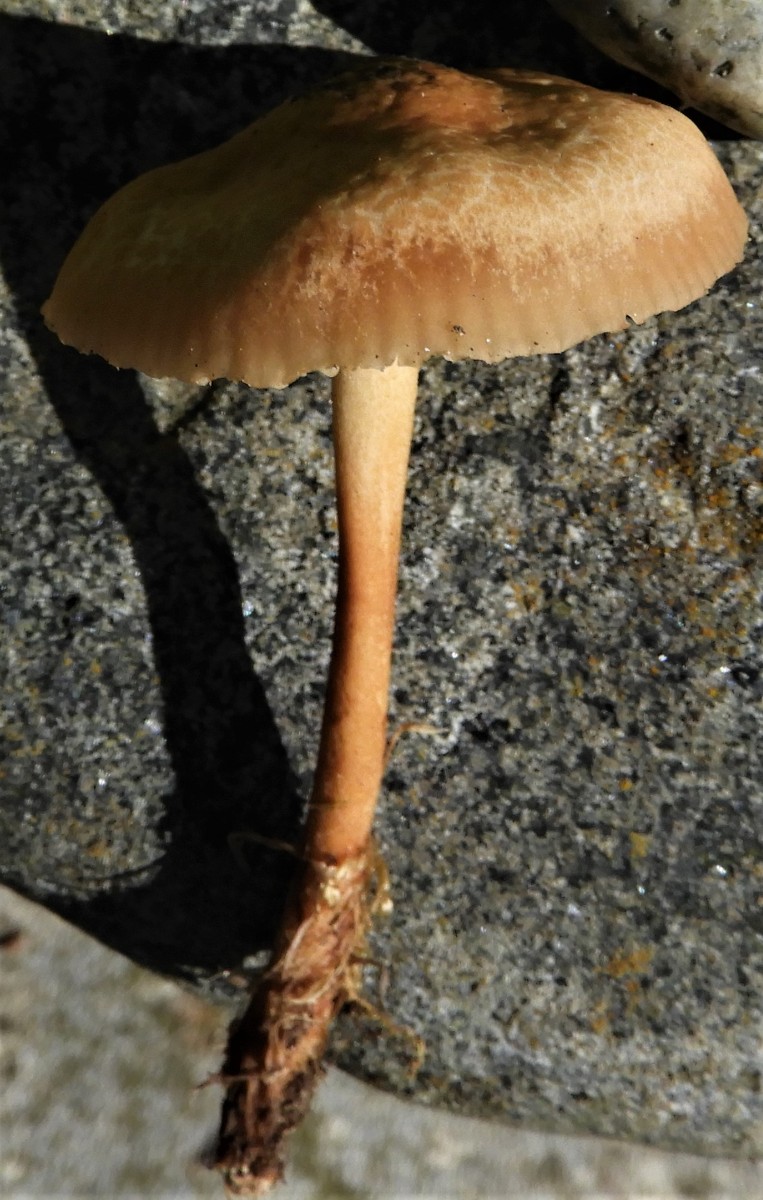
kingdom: Fungi
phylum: Basidiomycota
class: Agaricomycetes
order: Agaricales
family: Marasmiaceae
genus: Marasmius
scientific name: Marasmius oreades
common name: elledans-bruskhat
